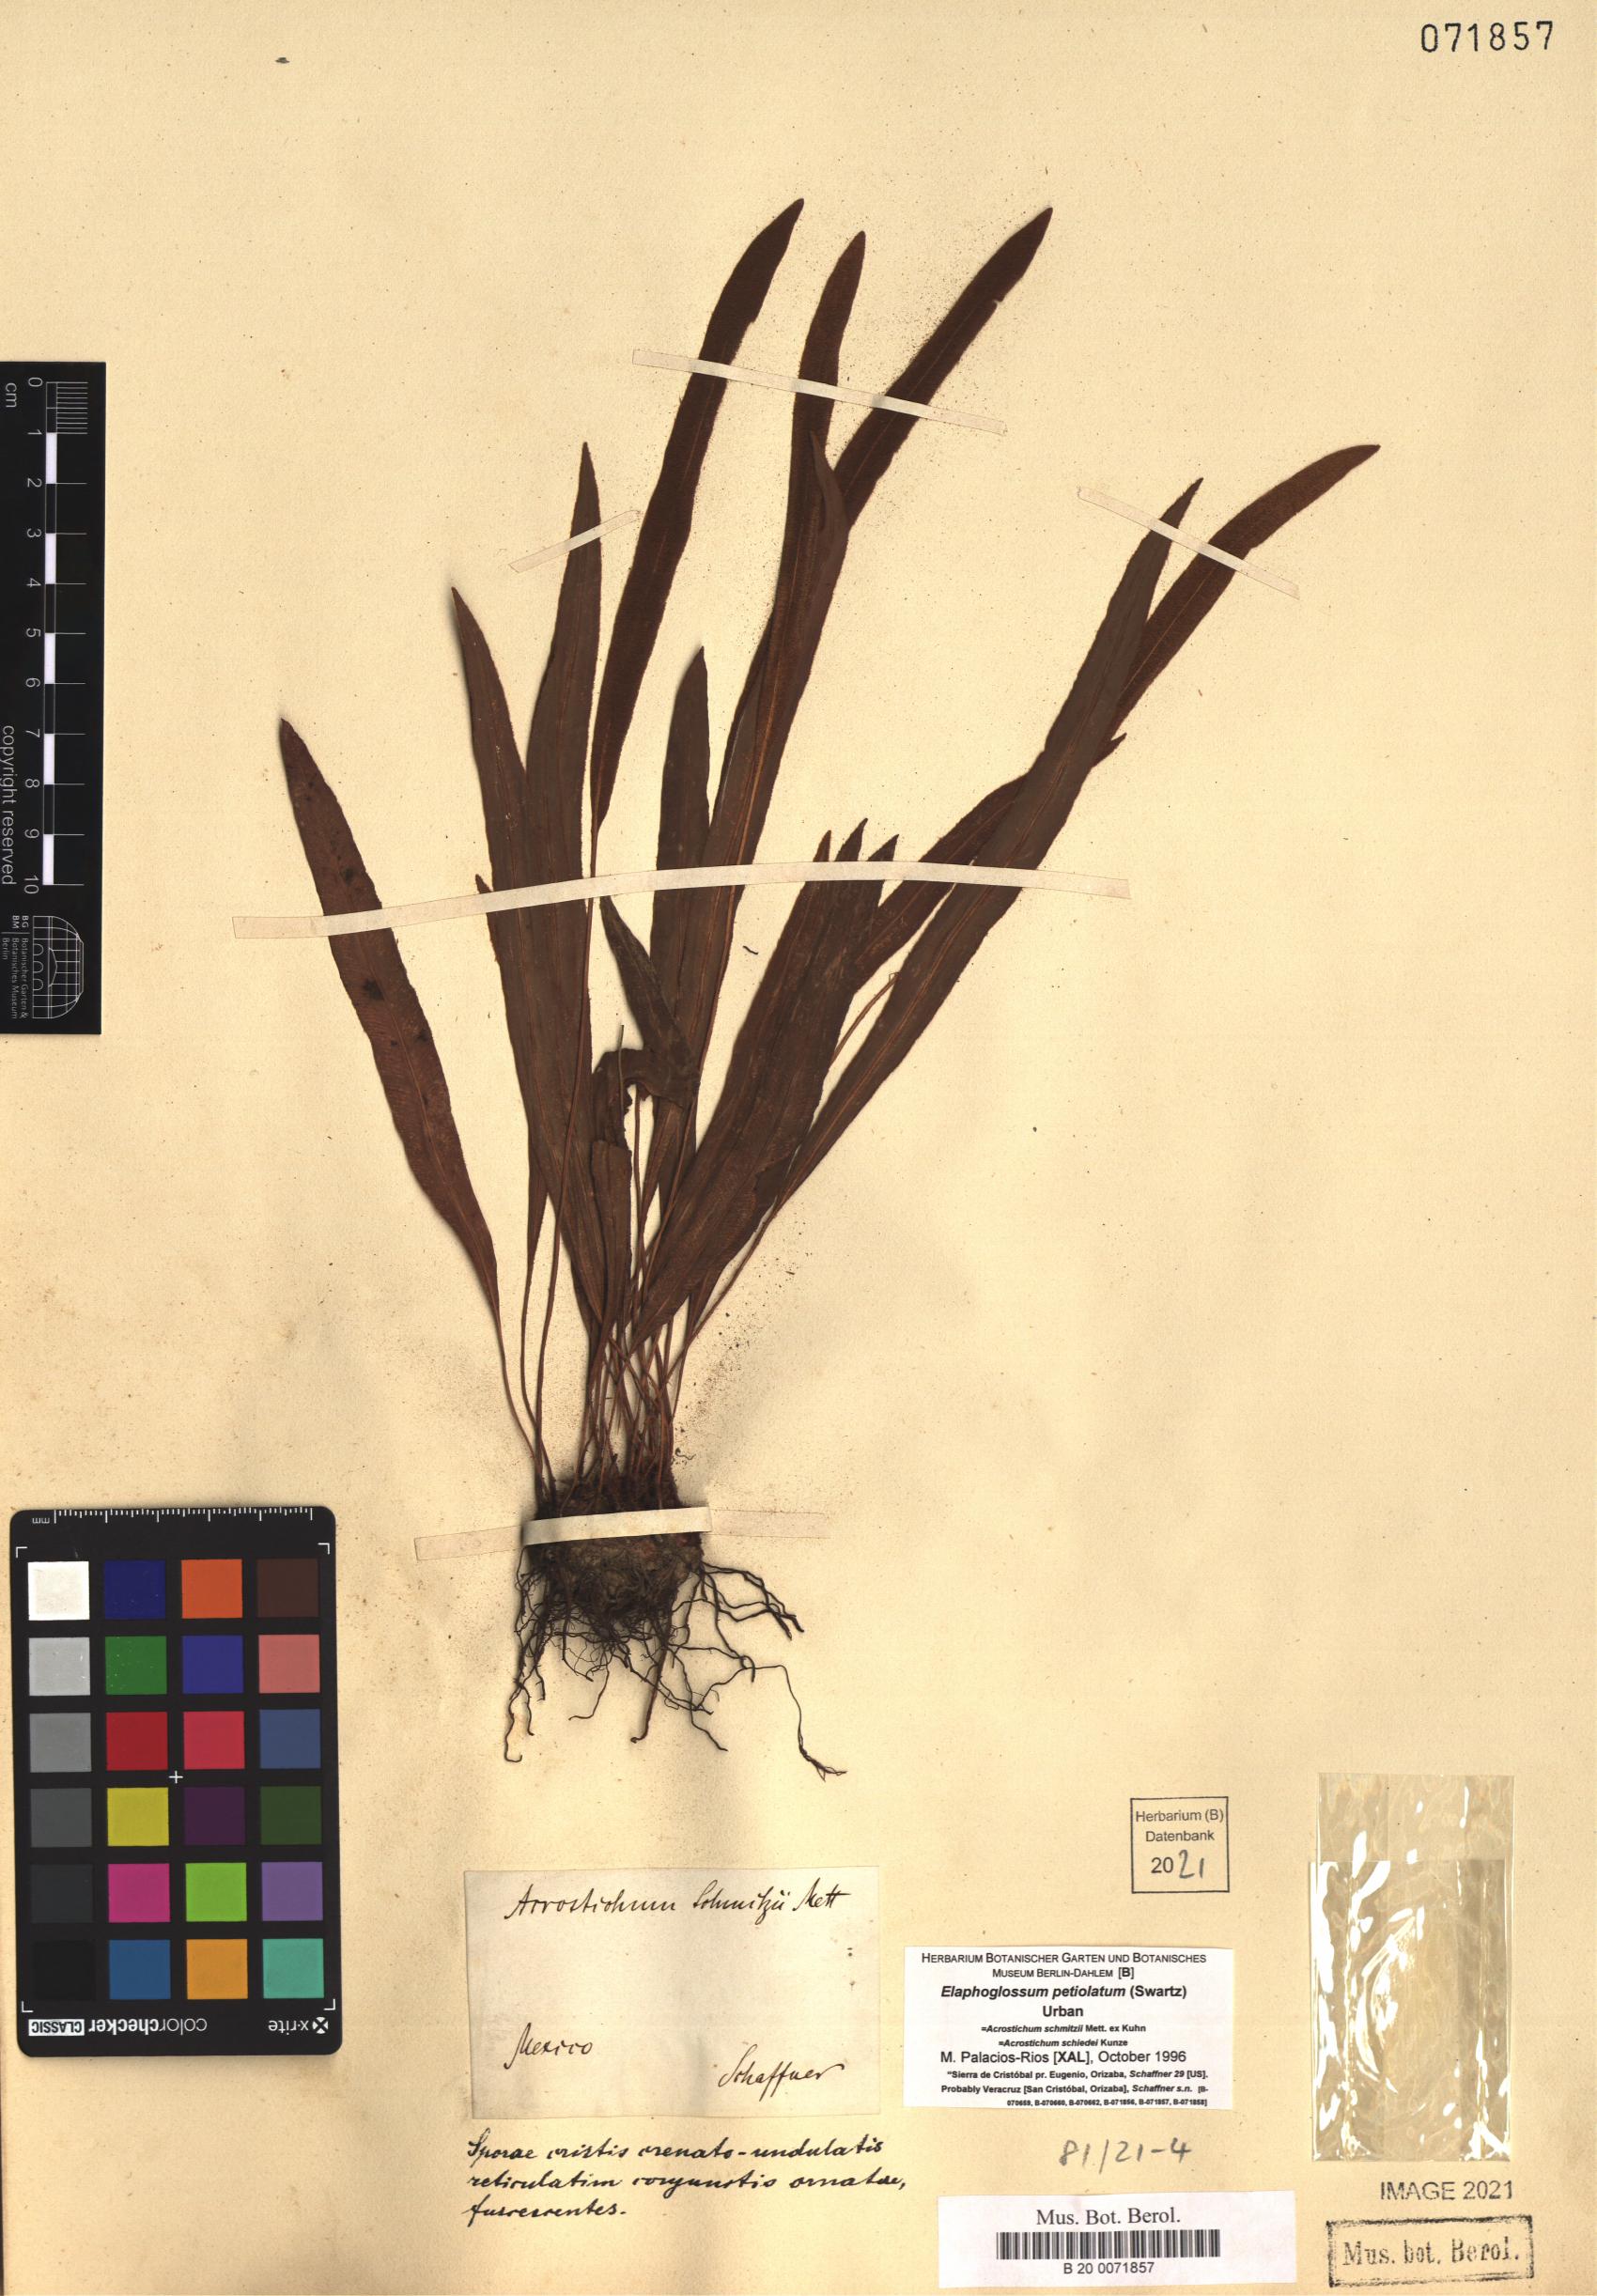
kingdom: Plantae
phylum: Tracheophyta
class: Polypodiopsida
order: Polypodiales
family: Dryopteridaceae
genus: Elaphoglossum
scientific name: Elaphoglossum petiolatum
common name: Graceful tonguefern
